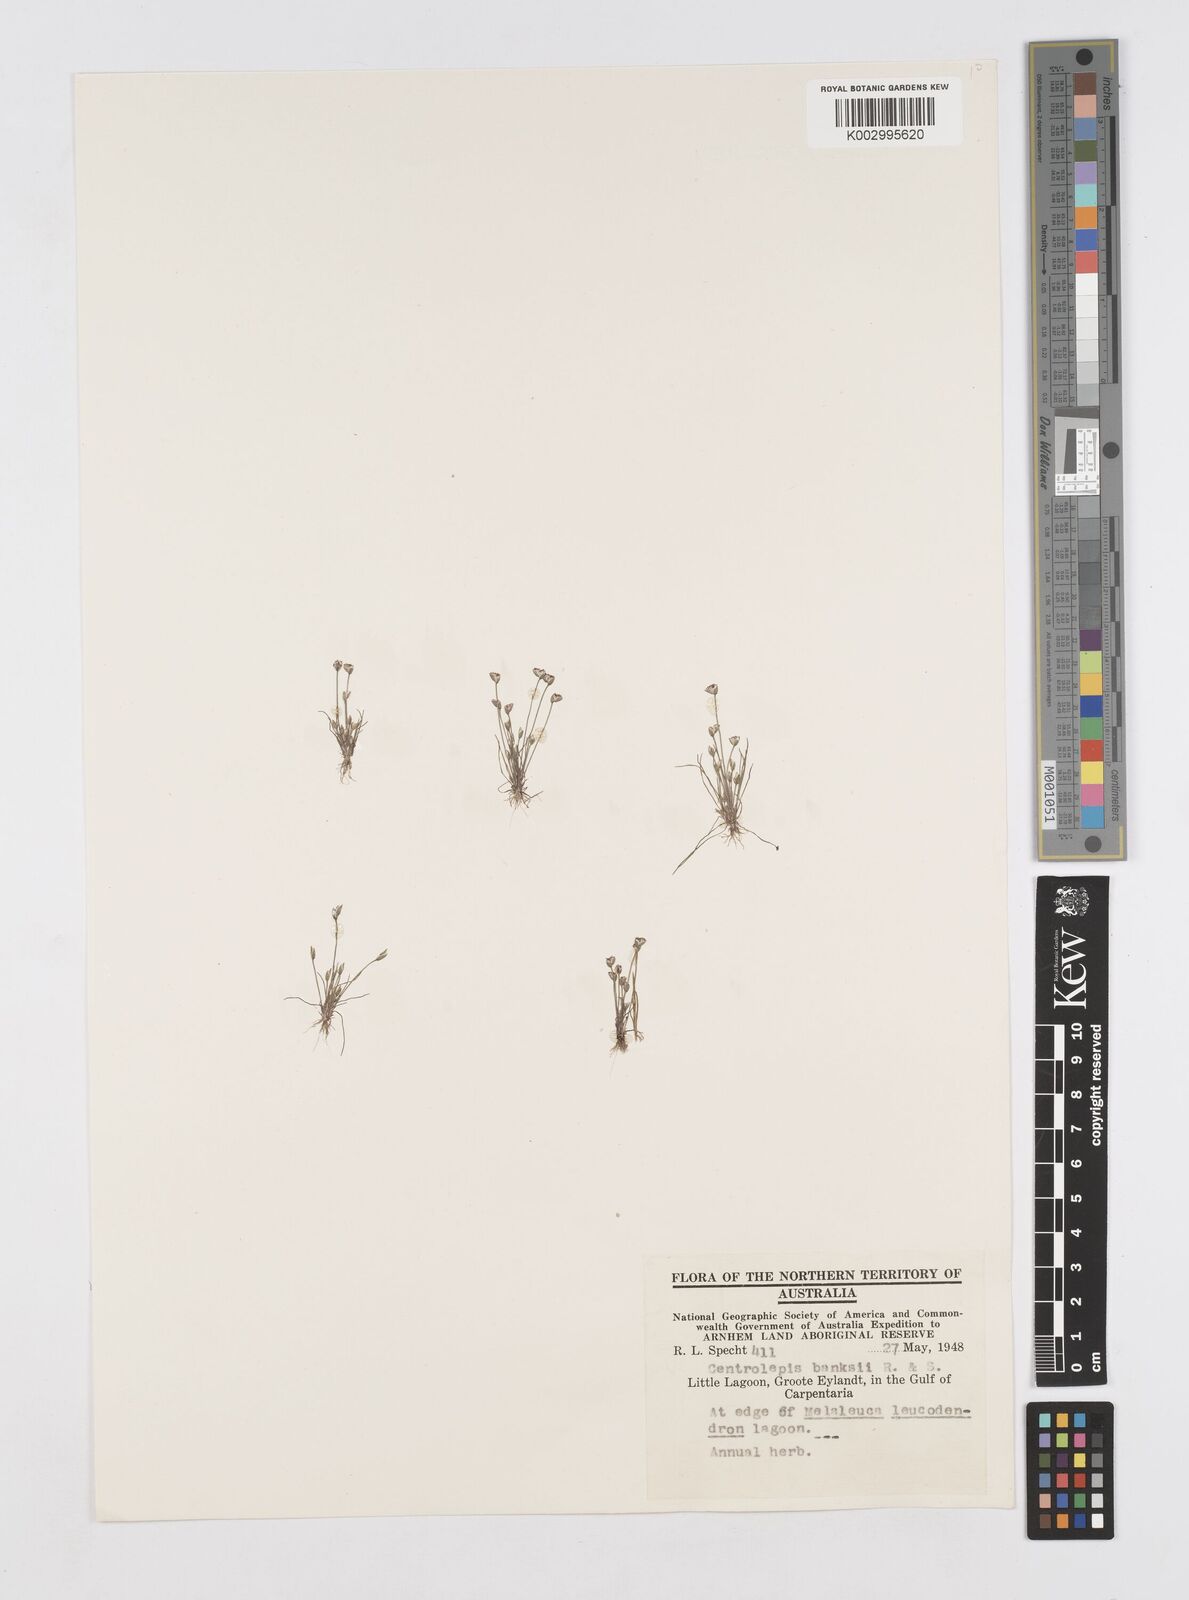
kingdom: Plantae
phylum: Tracheophyta
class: Liliopsida
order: Poales
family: Restionaceae
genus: Centrolepis
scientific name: Centrolepis banksii
